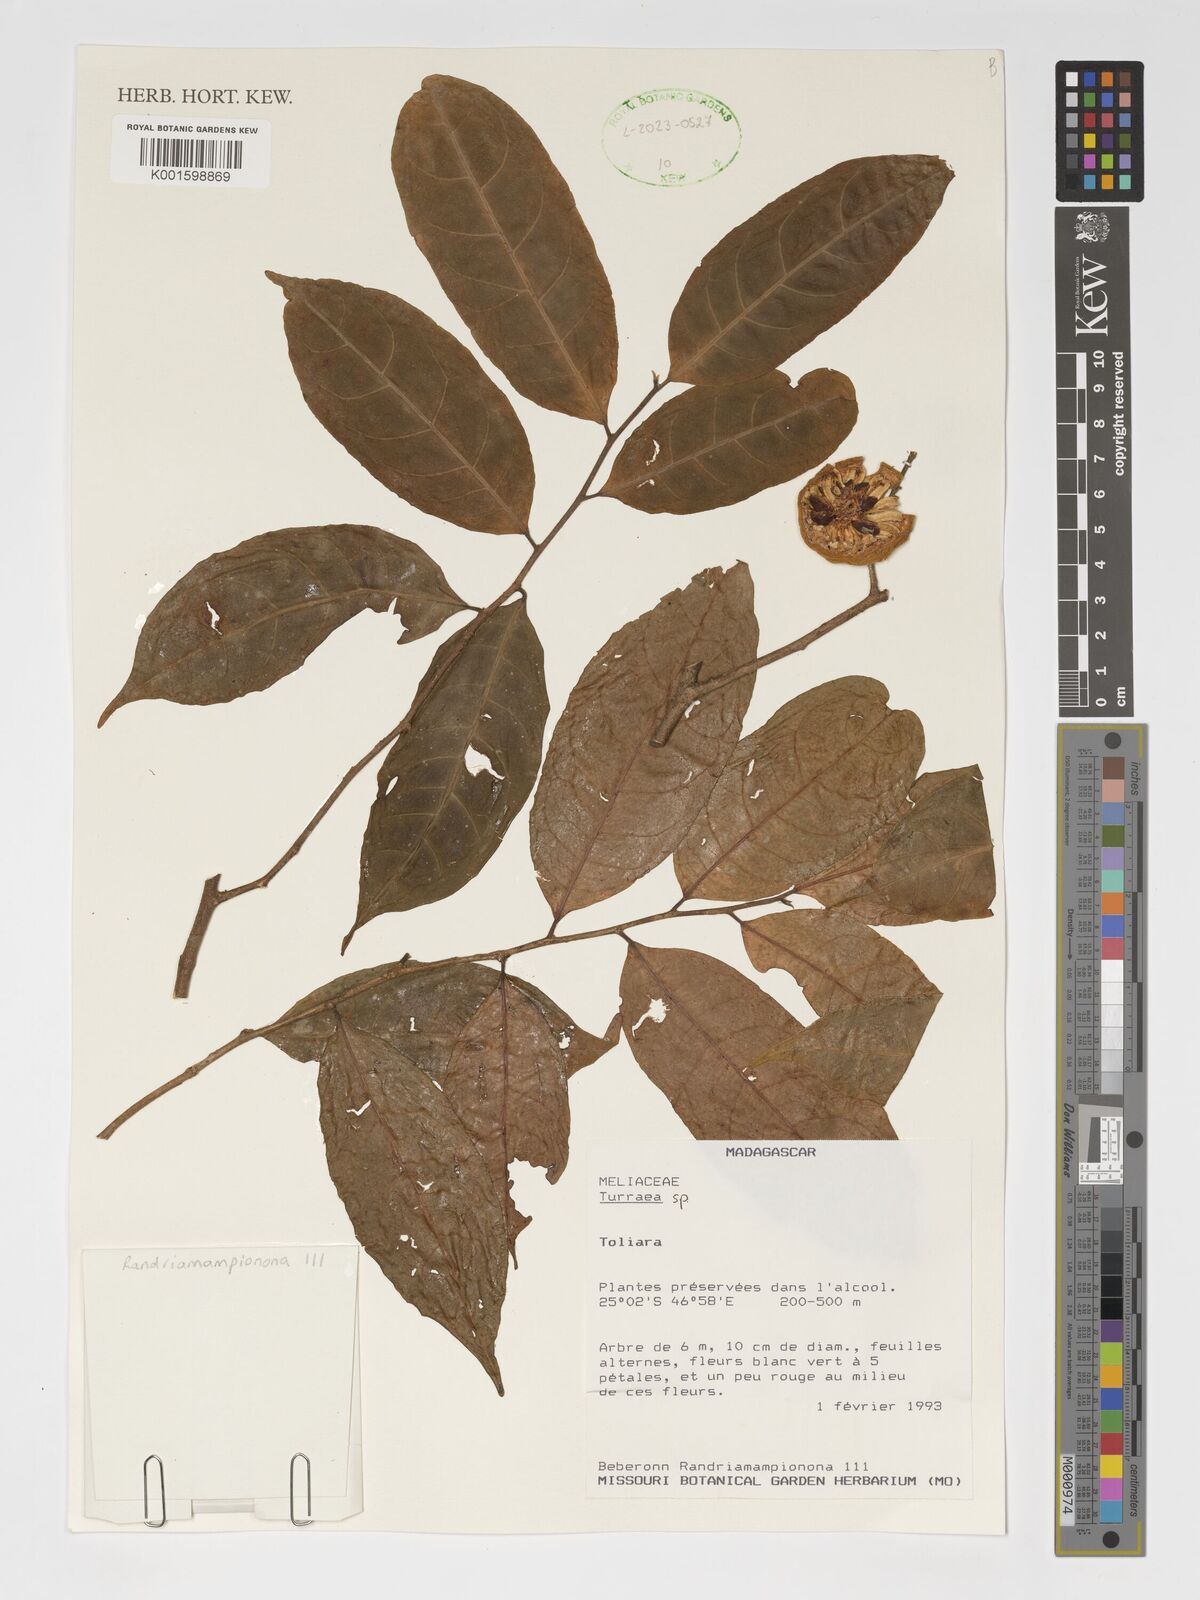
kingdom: Plantae
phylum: Tracheophyta
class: Magnoliopsida
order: Sapindales
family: Meliaceae
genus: Turraea
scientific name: Turraea
